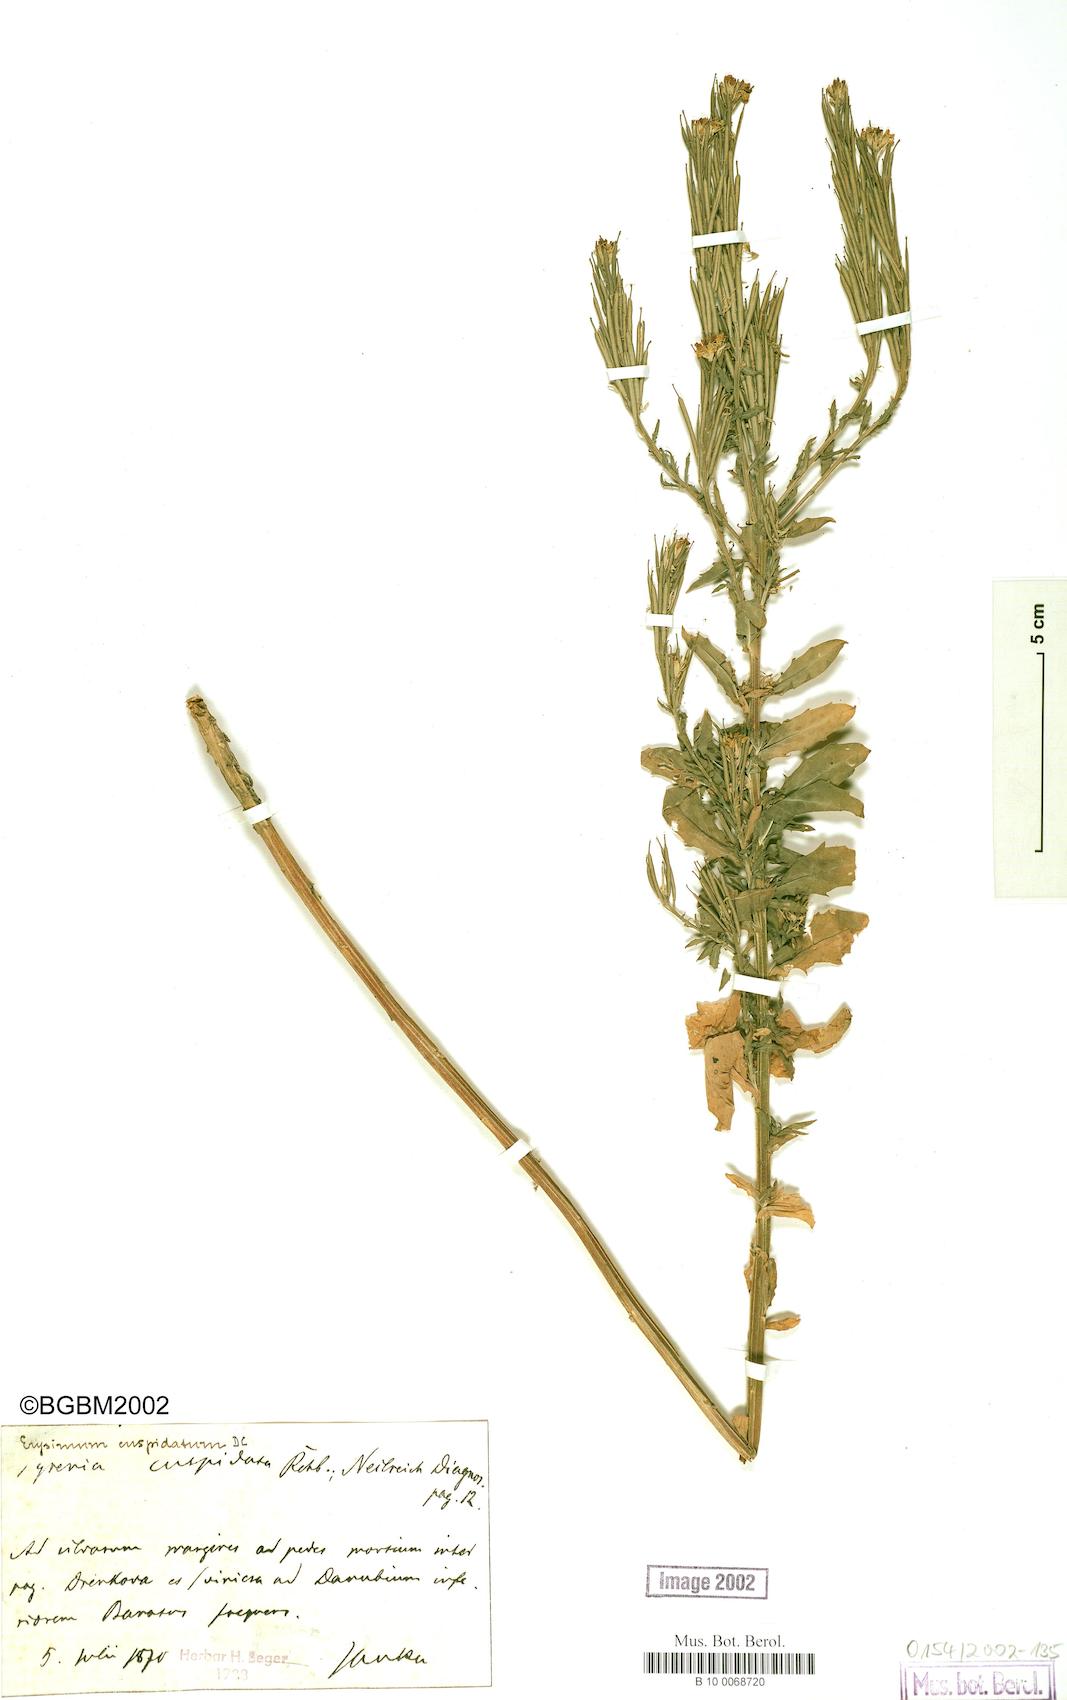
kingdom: Plantae
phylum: Tracheophyta
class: Magnoliopsida
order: Brassicales
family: Brassicaceae
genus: Erysimum
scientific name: Erysimum cuspidatum
